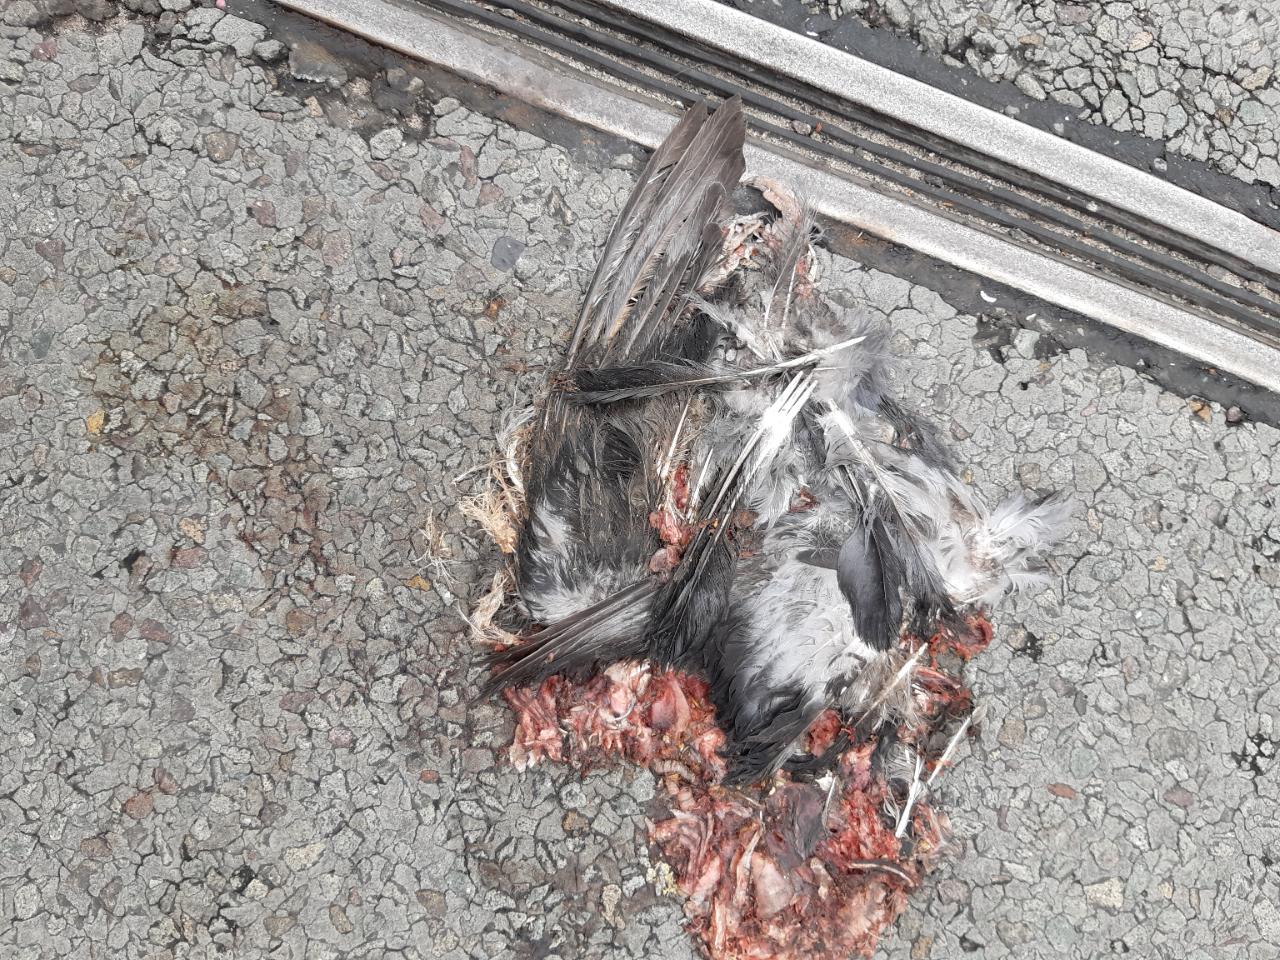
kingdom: Animalia
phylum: Chordata
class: Aves
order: Columbiformes
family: Columbidae
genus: Columba
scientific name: Columba livia
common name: Rock pigeon
